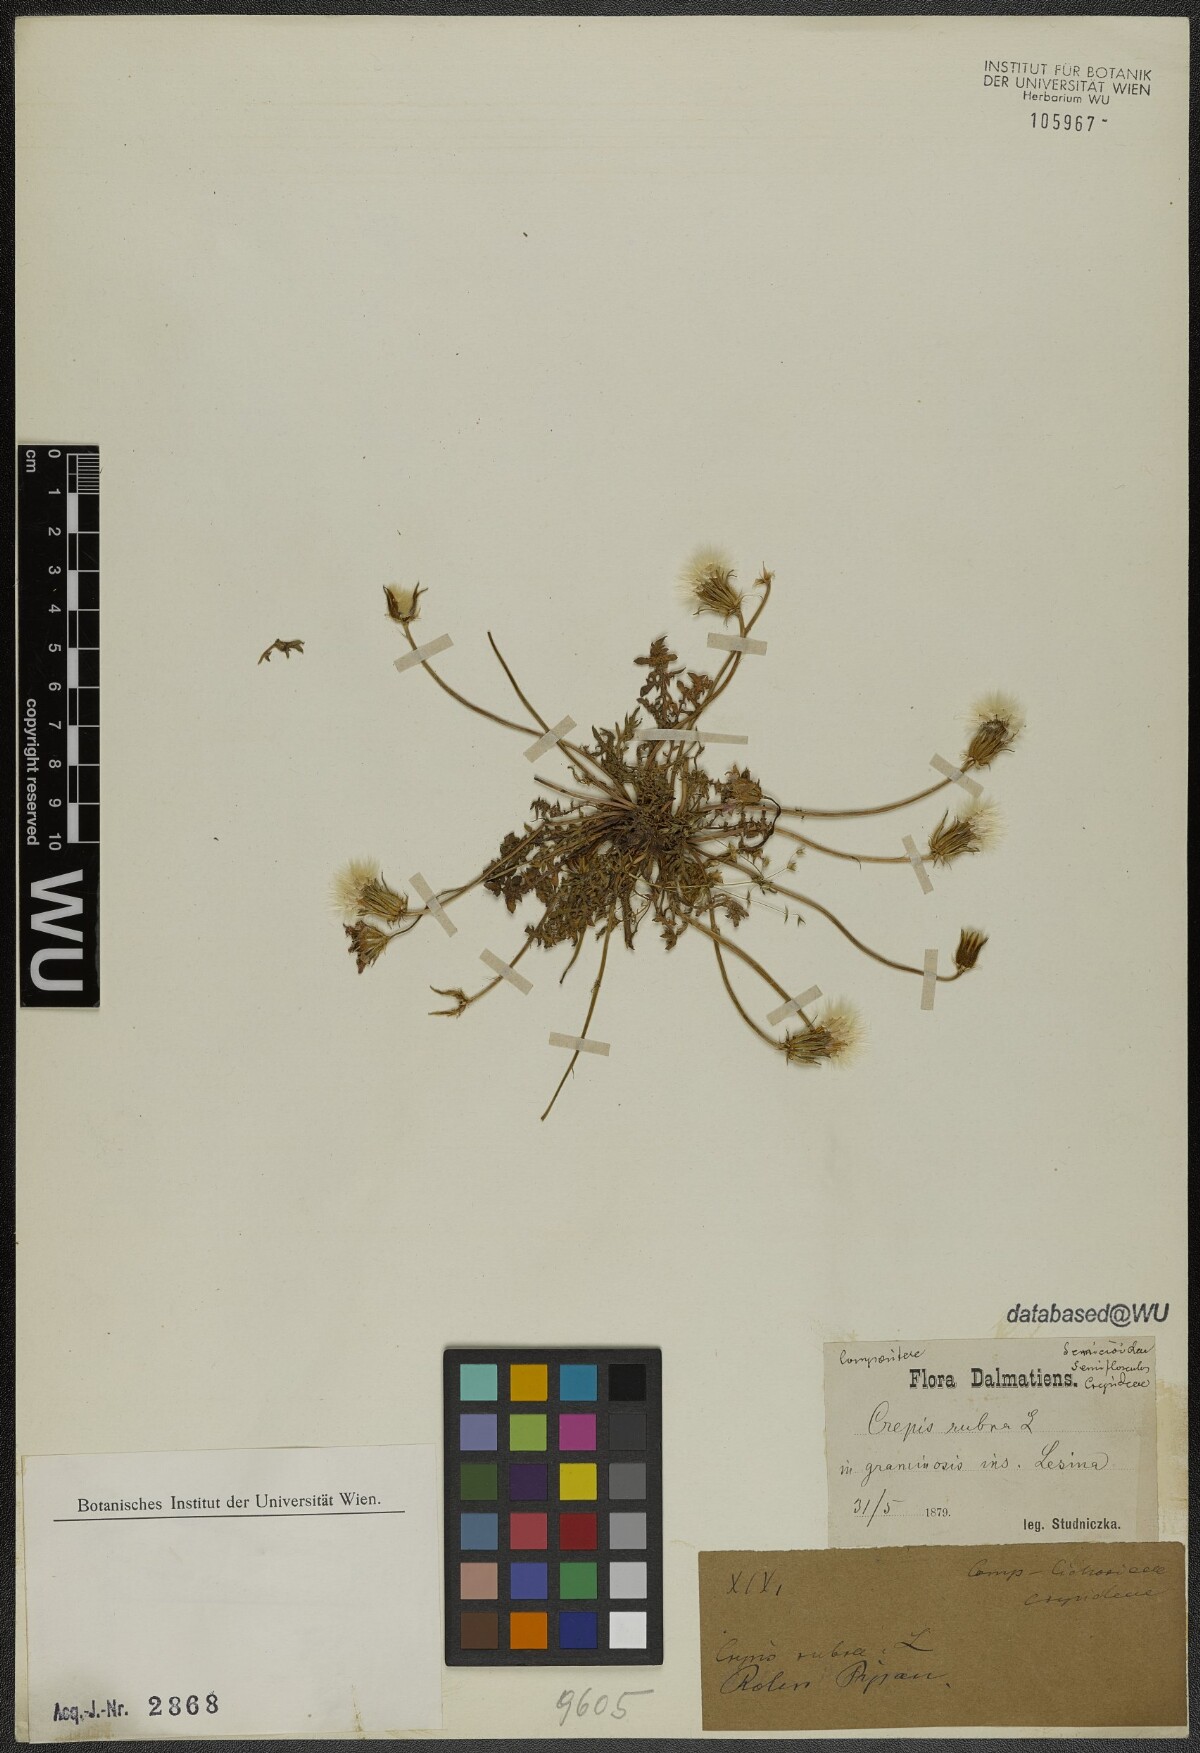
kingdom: Plantae
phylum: Tracheophyta
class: Magnoliopsida
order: Asterales
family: Asteraceae
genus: Crepis
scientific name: Crepis rubra
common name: Pink hawk's-beard
